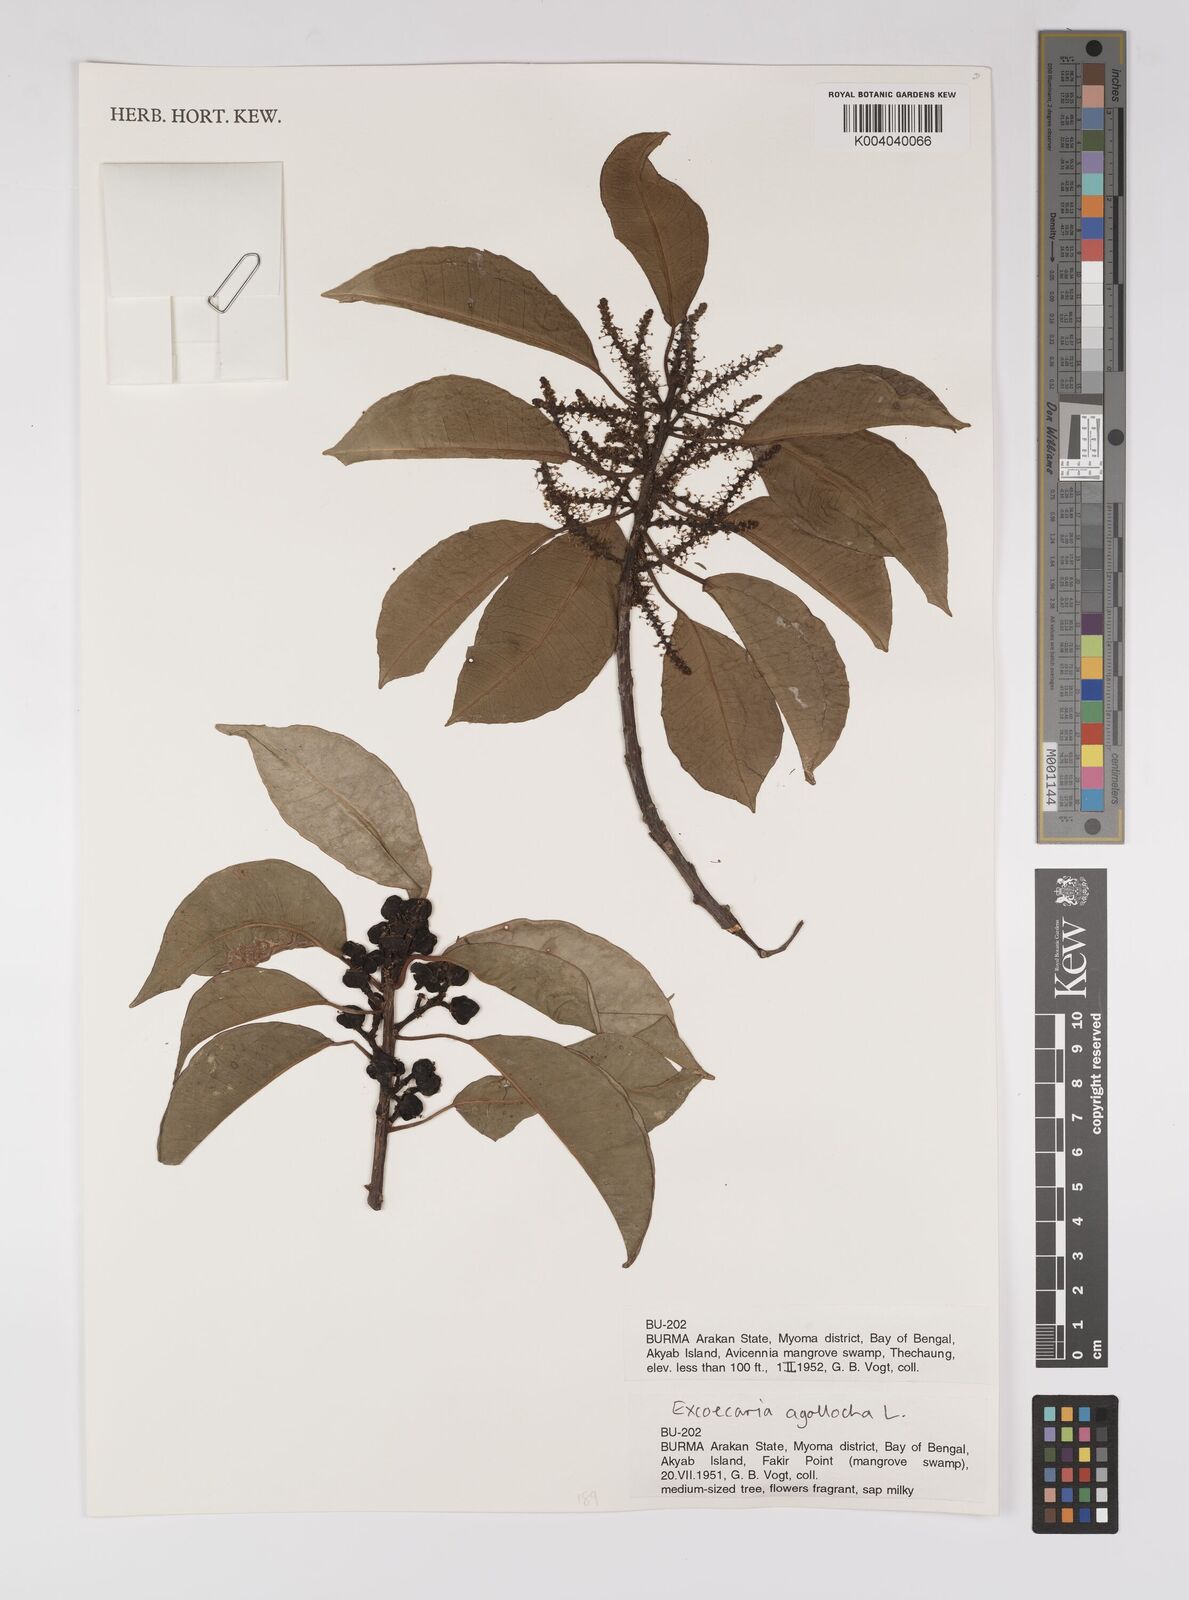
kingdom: Plantae
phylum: Tracheophyta
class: Magnoliopsida
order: Malpighiales
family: Euphorbiaceae
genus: Excoecaria
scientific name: Excoecaria agallocha
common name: River poisontree
